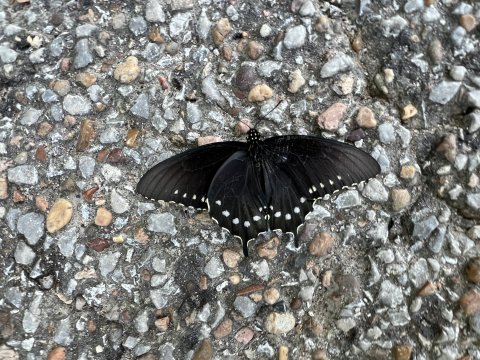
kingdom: Animalia
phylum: Arthropoda
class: Insecta
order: Lepidoptera
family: Papilionidae
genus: Battus
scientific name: Battus philenor
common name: Pipevine Swallowtail
